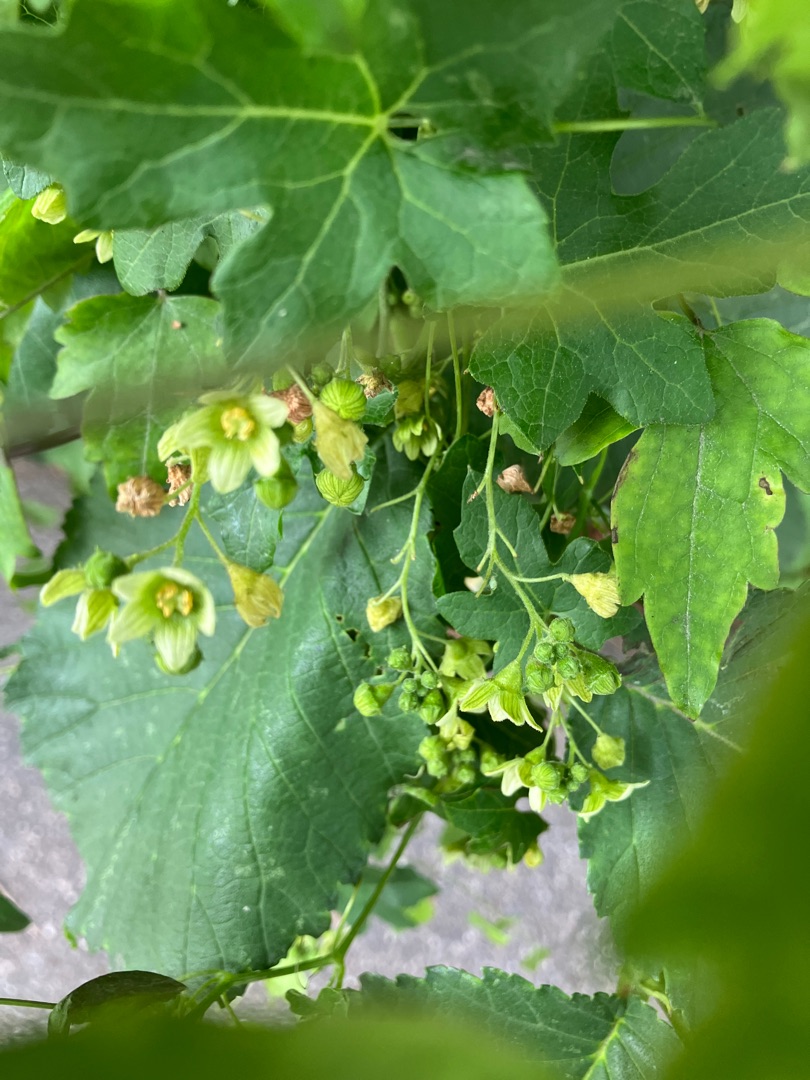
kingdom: Plantae
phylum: Tracheophyta
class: Magnoliopsida
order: Cucurbitales
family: Cucurbitaceae
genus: Bryonia
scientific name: Bryonia dioica
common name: Tvebo galdebær
